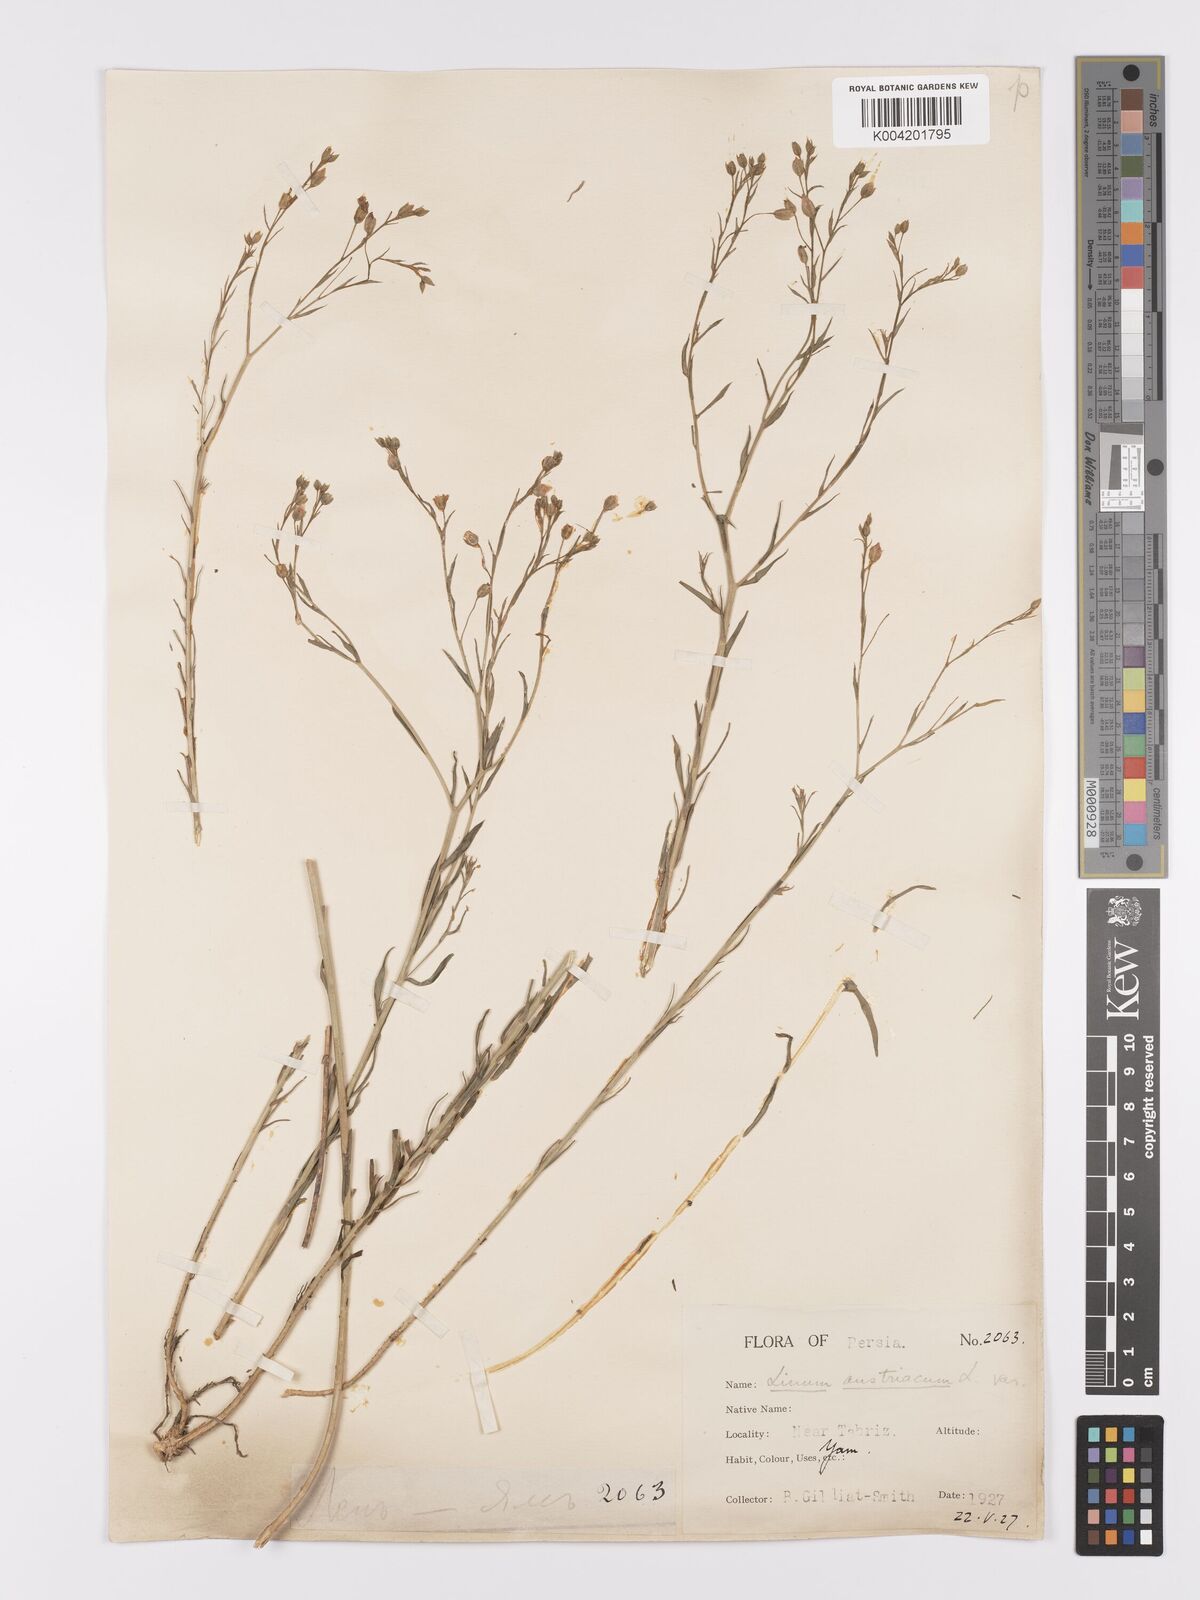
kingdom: Plantae
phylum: Tracheophyta
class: Magnoliopsida
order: Malpighiales
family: Linaceae
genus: Linum
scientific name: Linum
